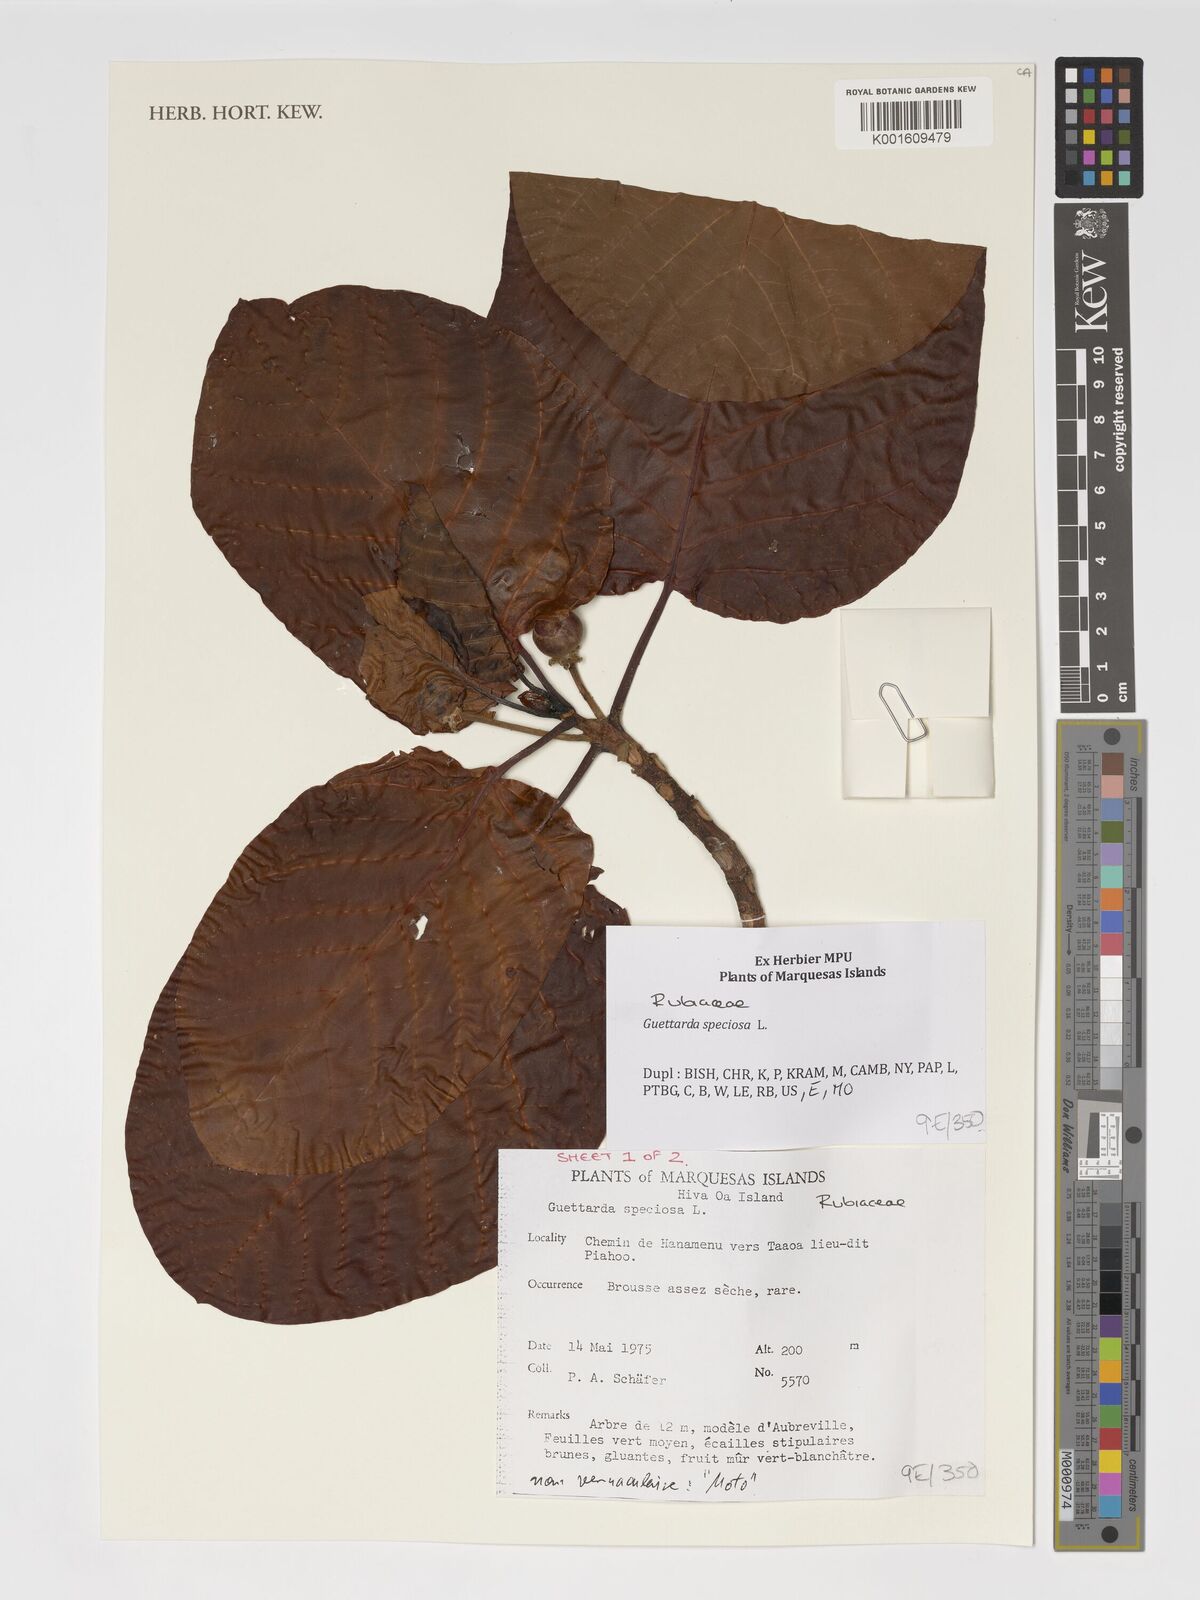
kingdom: Plantae
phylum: Tracheophyta
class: Magnoliopsida
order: Gentianales
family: Rubiaceae
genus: Guettarda
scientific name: Guettarda speciosa
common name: Sea randa
